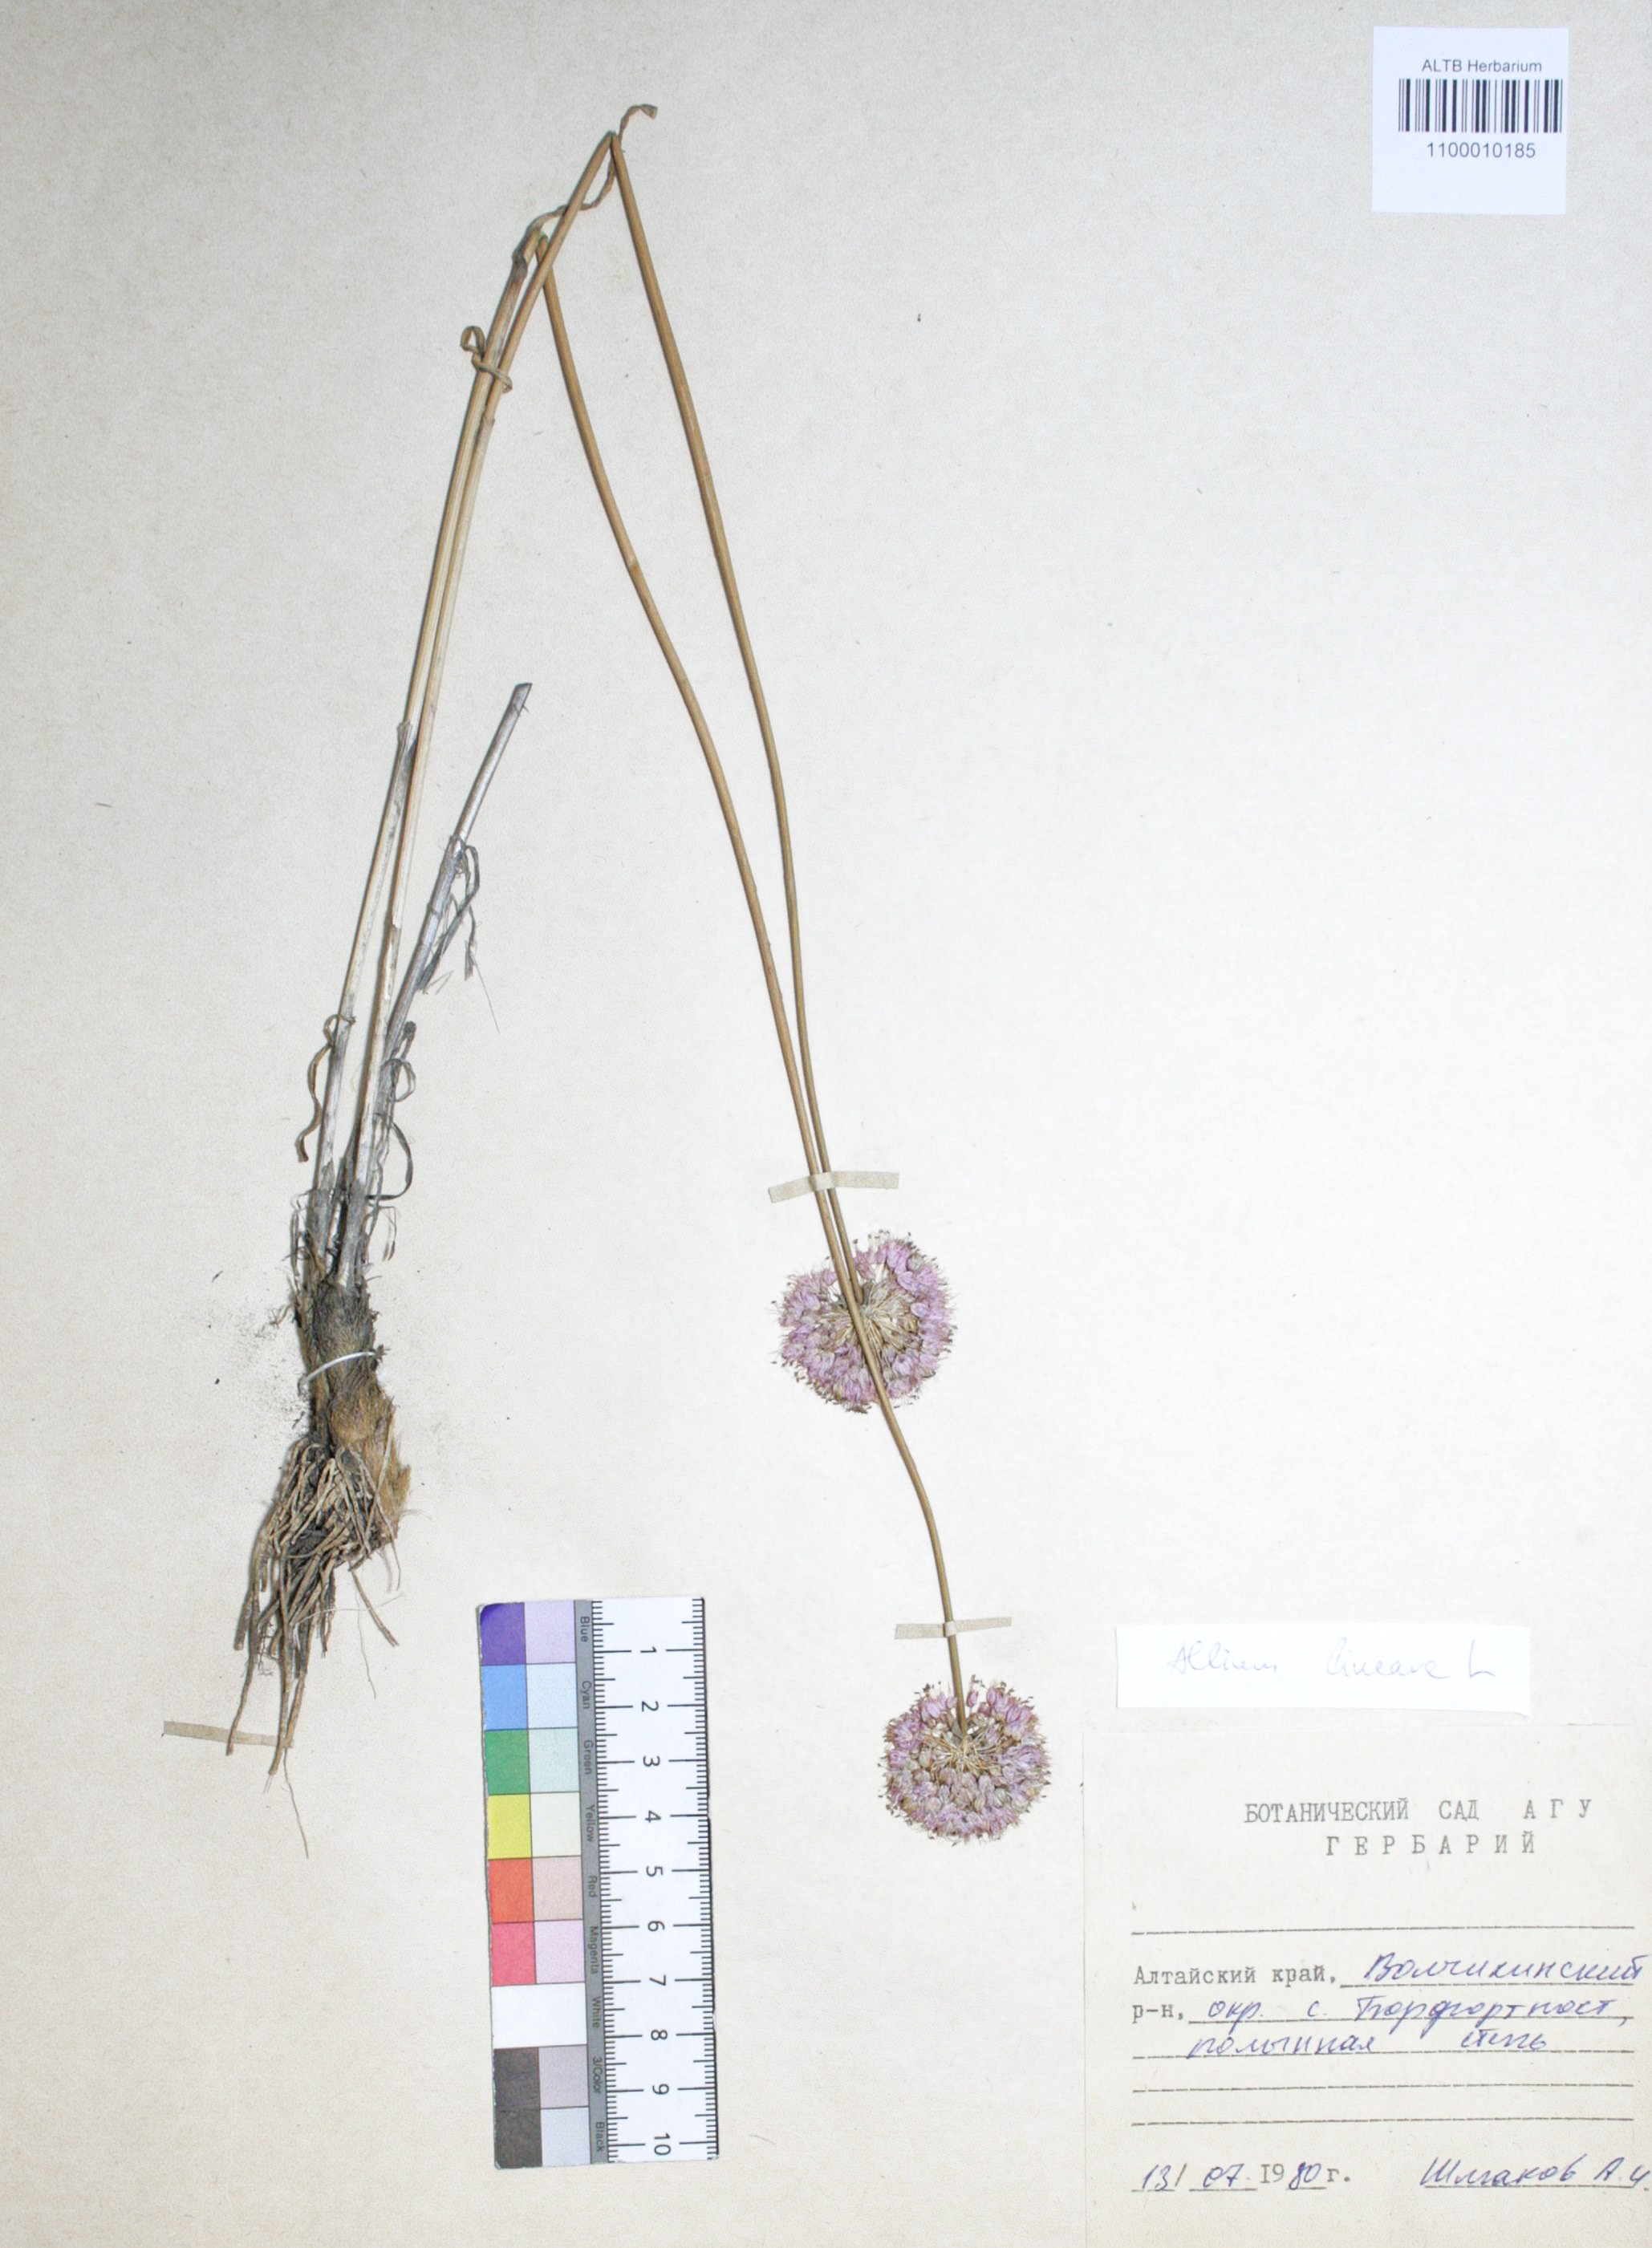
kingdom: Plantae
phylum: Tracheophyta
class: Liliopsida
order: Asparagales
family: Amaryllidaceae
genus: Allium
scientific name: Allium lineare
